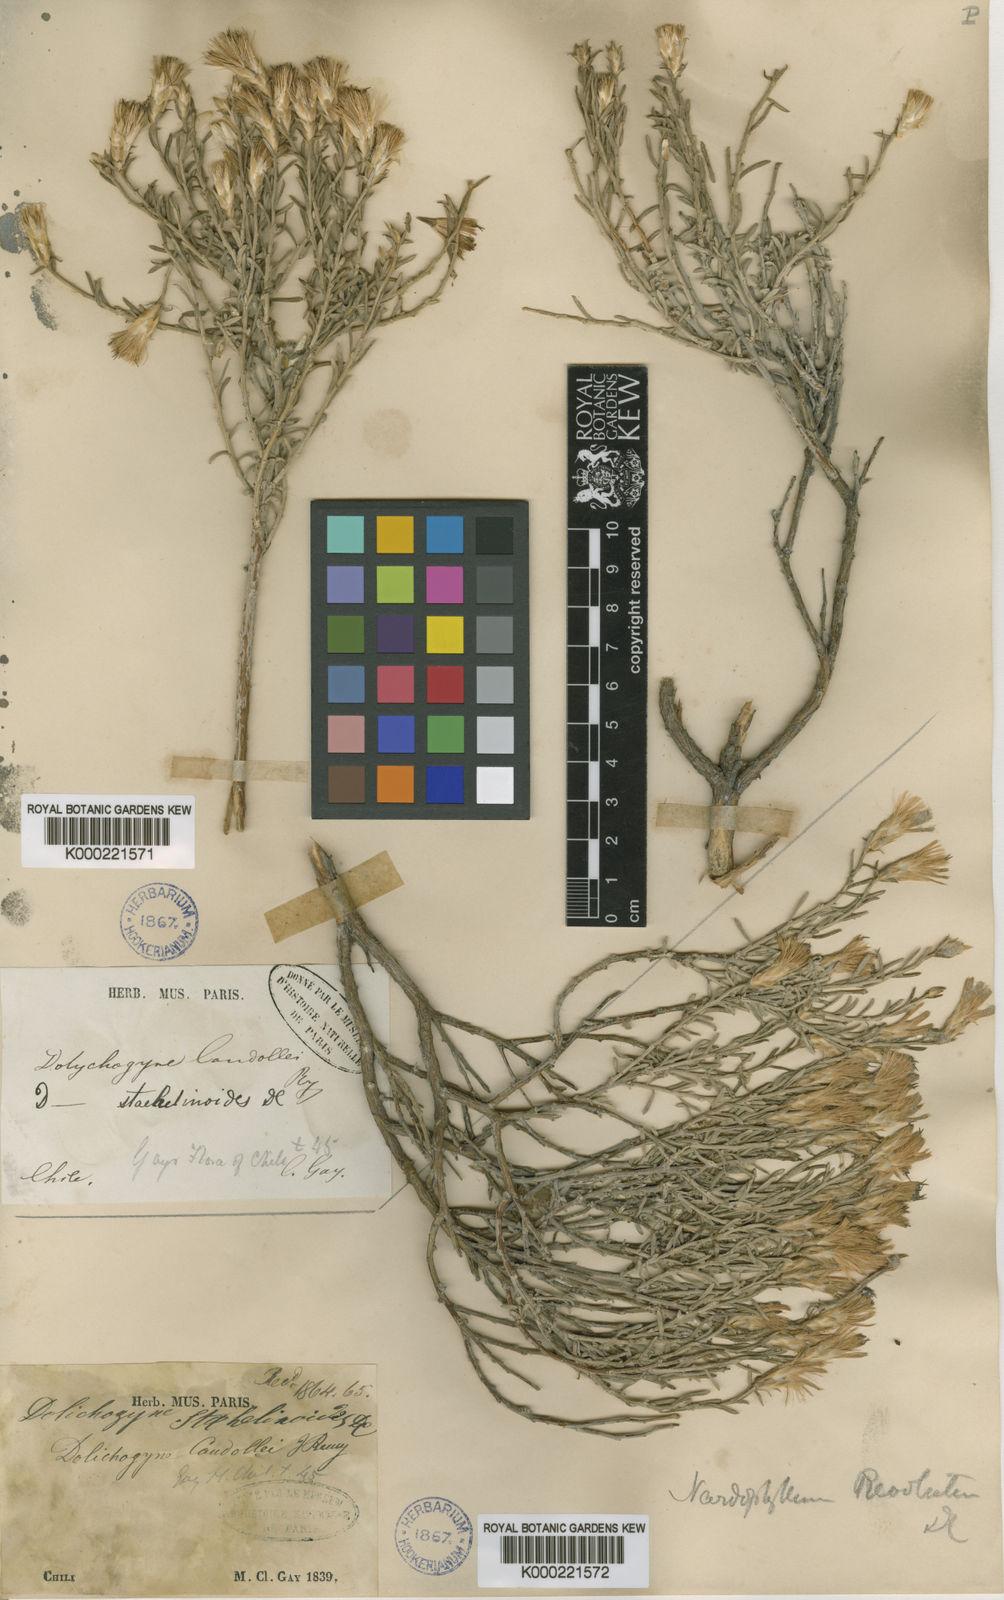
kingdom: Plantae
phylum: Tracheophyta
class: Magnoliopsida
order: Asterales
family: Asteraceae
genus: Nardophyllum
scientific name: Nardophyllum lanatum
